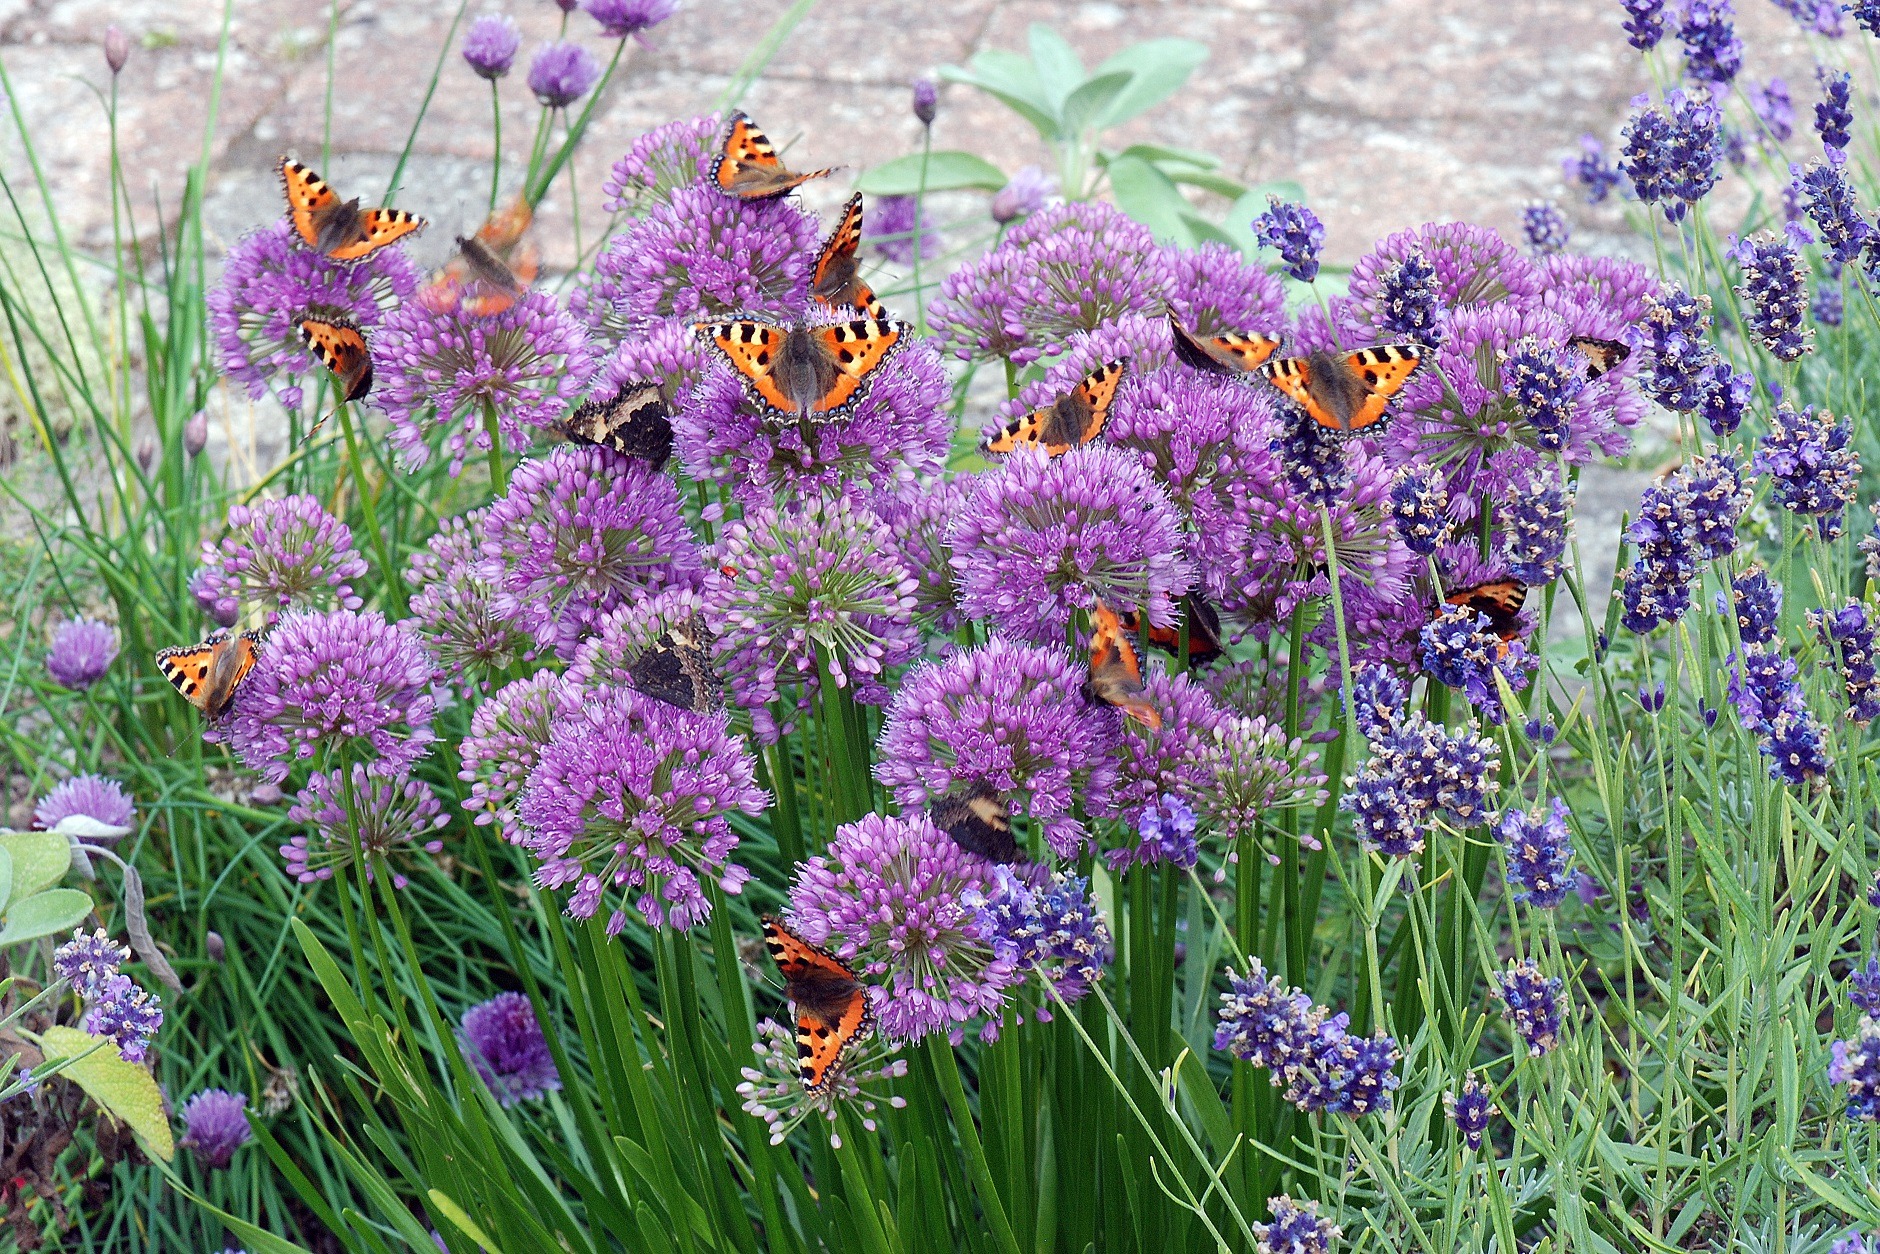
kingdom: Animalia
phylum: Arthropoda
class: Insecta
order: Lepidoptera
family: Nymphalidae
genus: Aglais
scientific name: Aglais urticae
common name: Nældens takvinge
